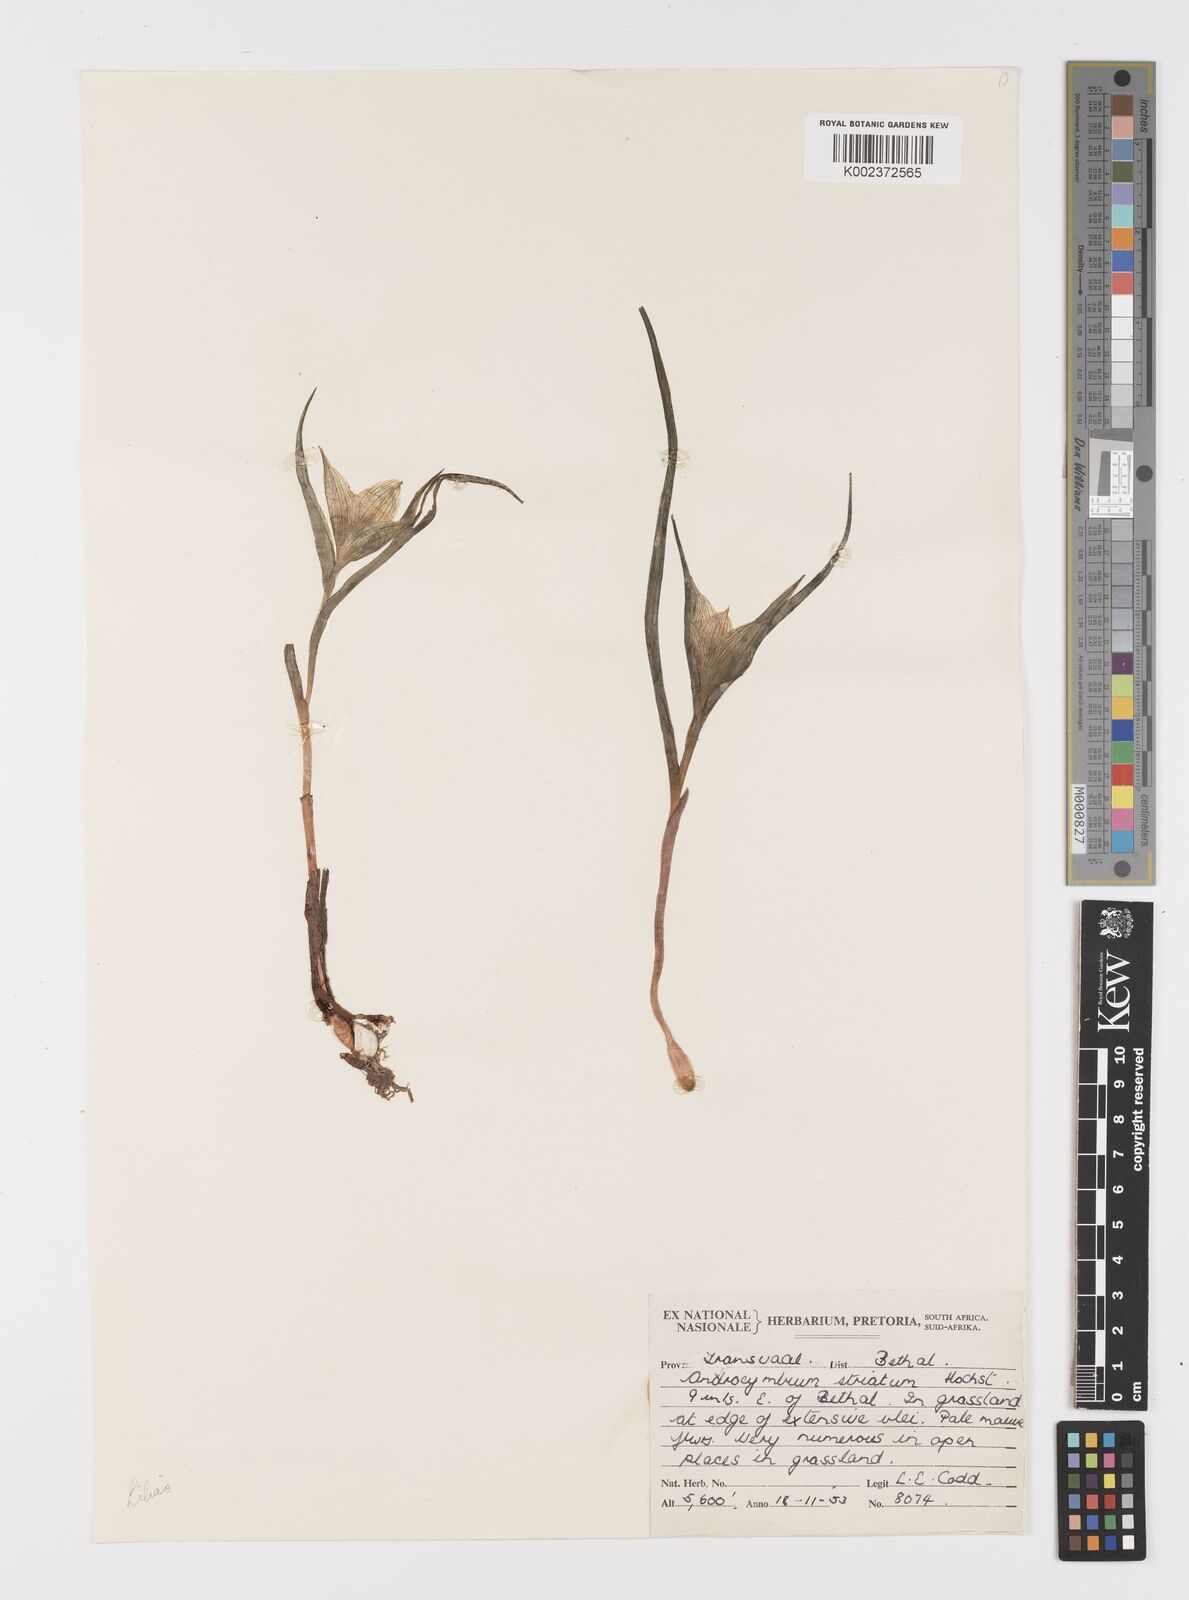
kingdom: Plantae
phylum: Tracheophyta
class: Liliopsida
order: Liliales
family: Colchicaceae
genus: Colchicum
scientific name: Colchicum melanthioides
